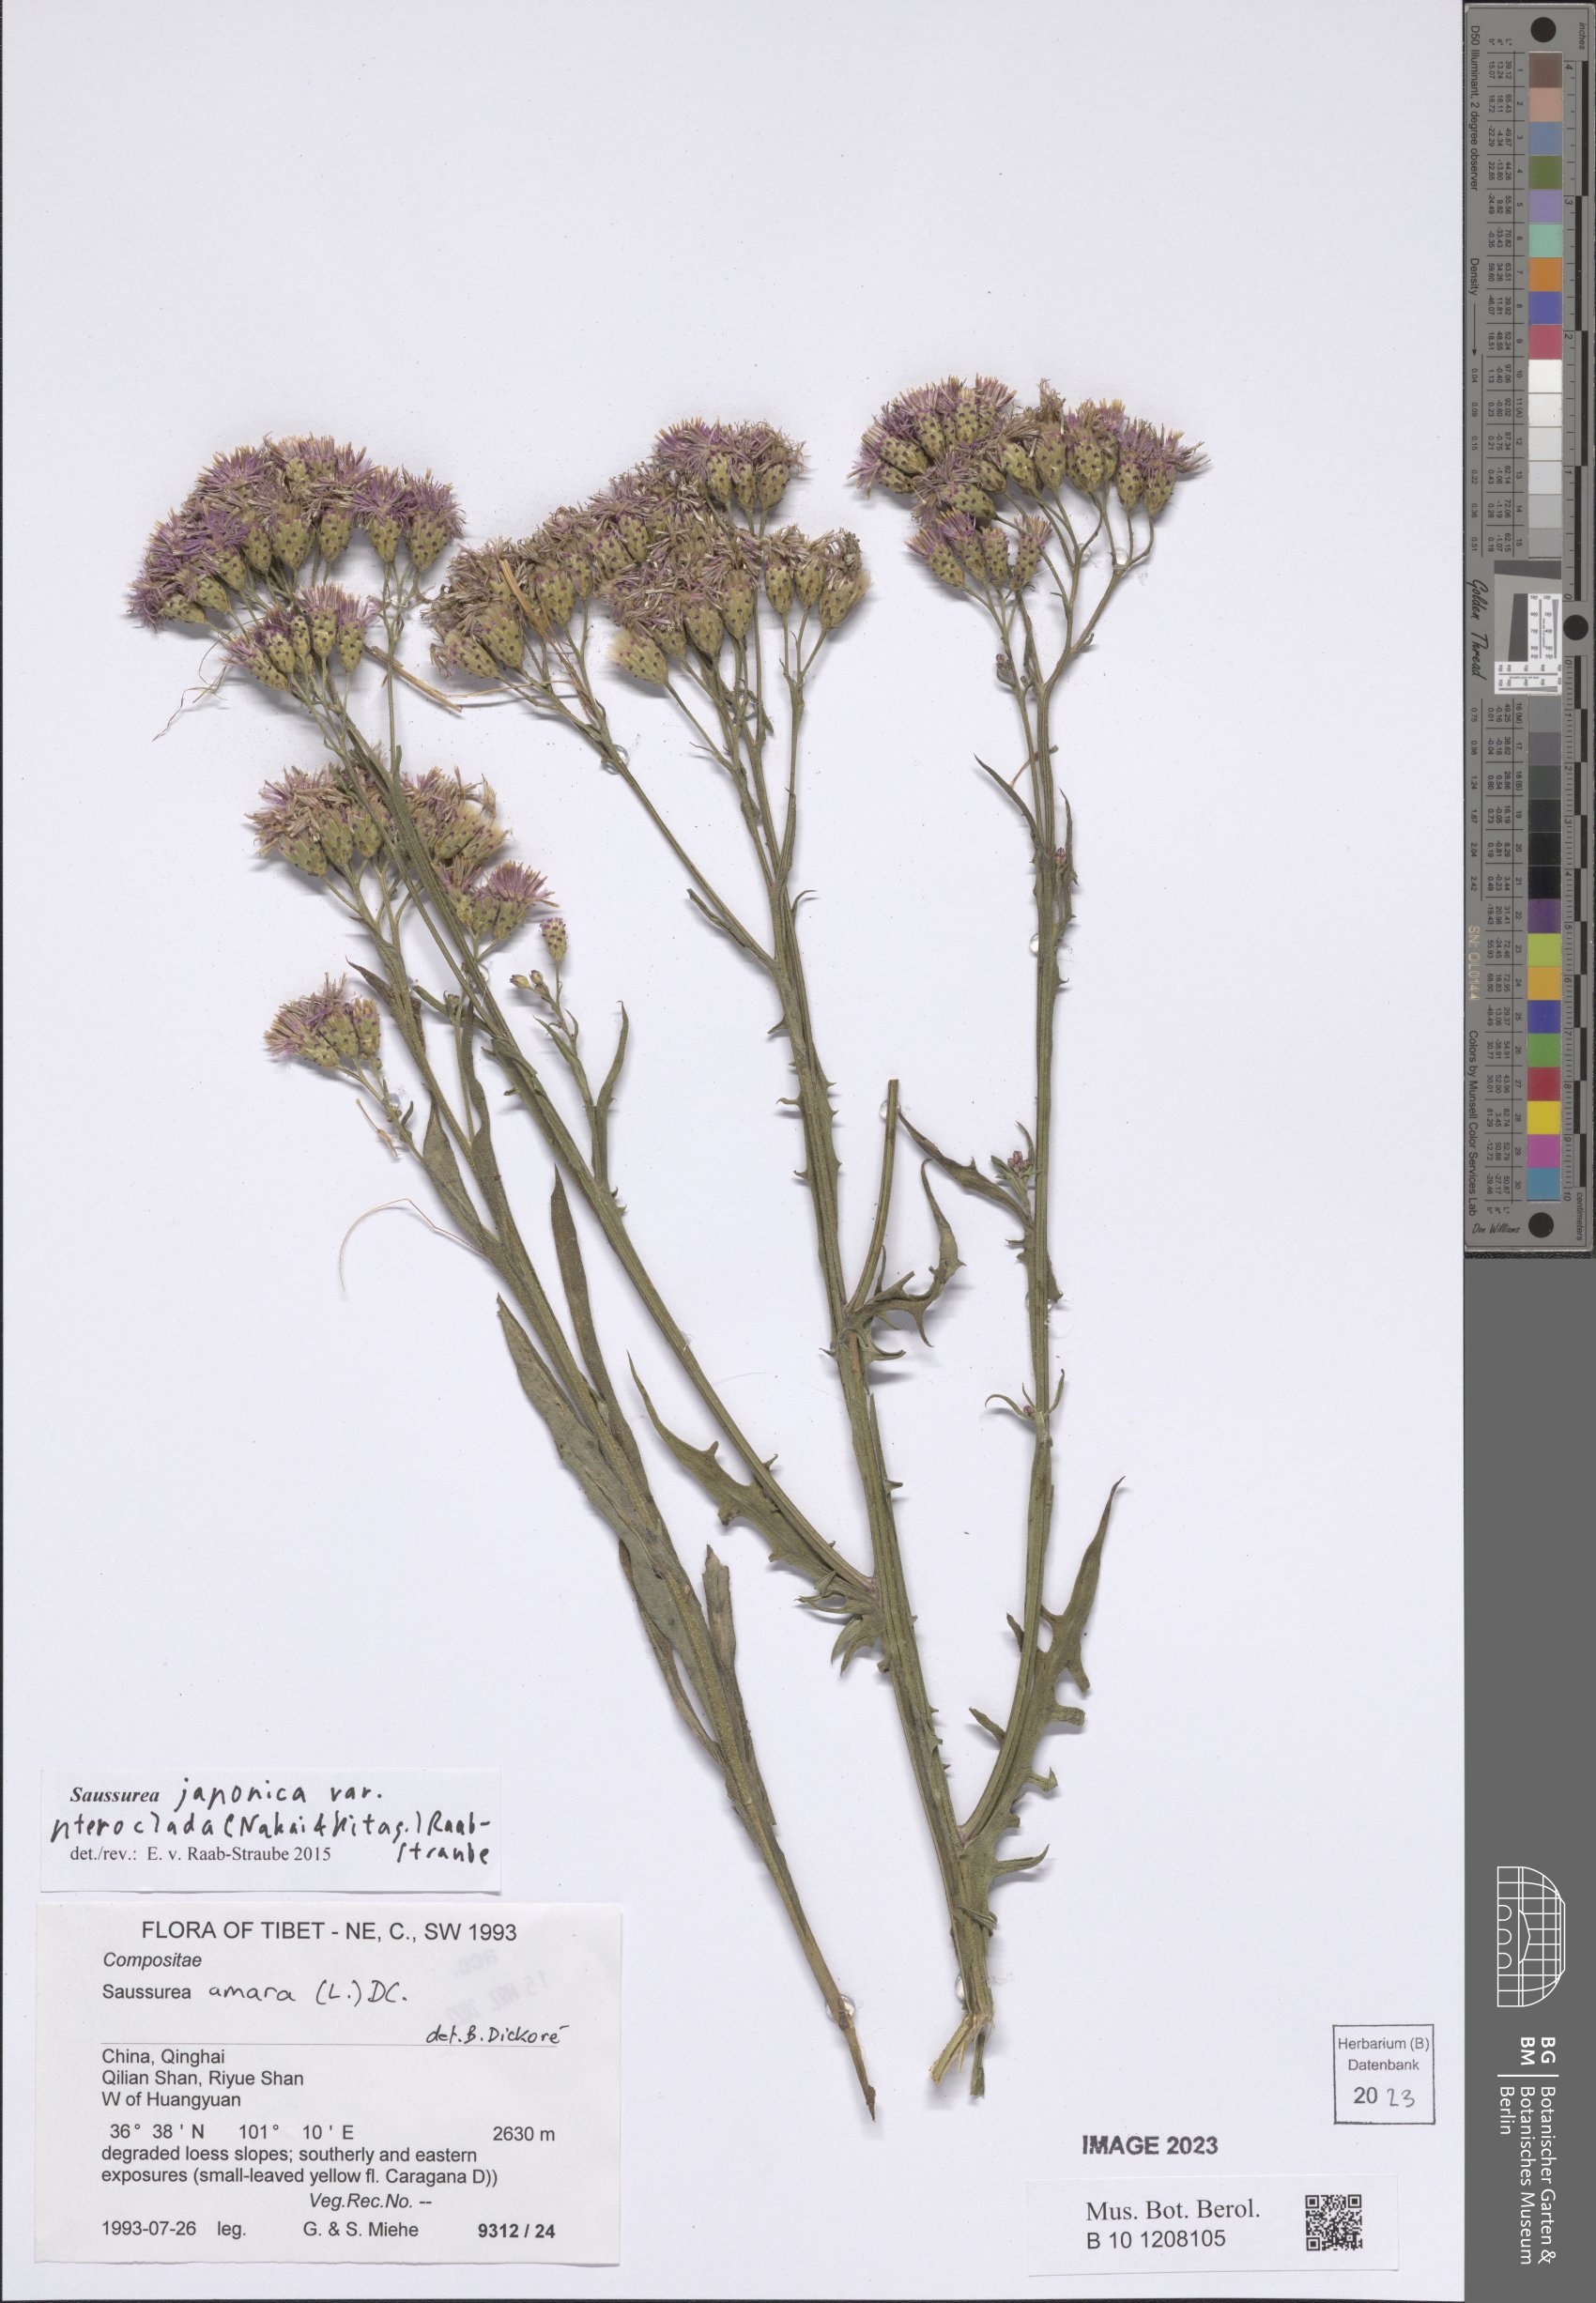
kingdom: Plantae
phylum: Tracheophyta
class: Magnoliopsida
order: Asterales
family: Asteraceae
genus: Saussurea
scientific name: Saussurea japonica
